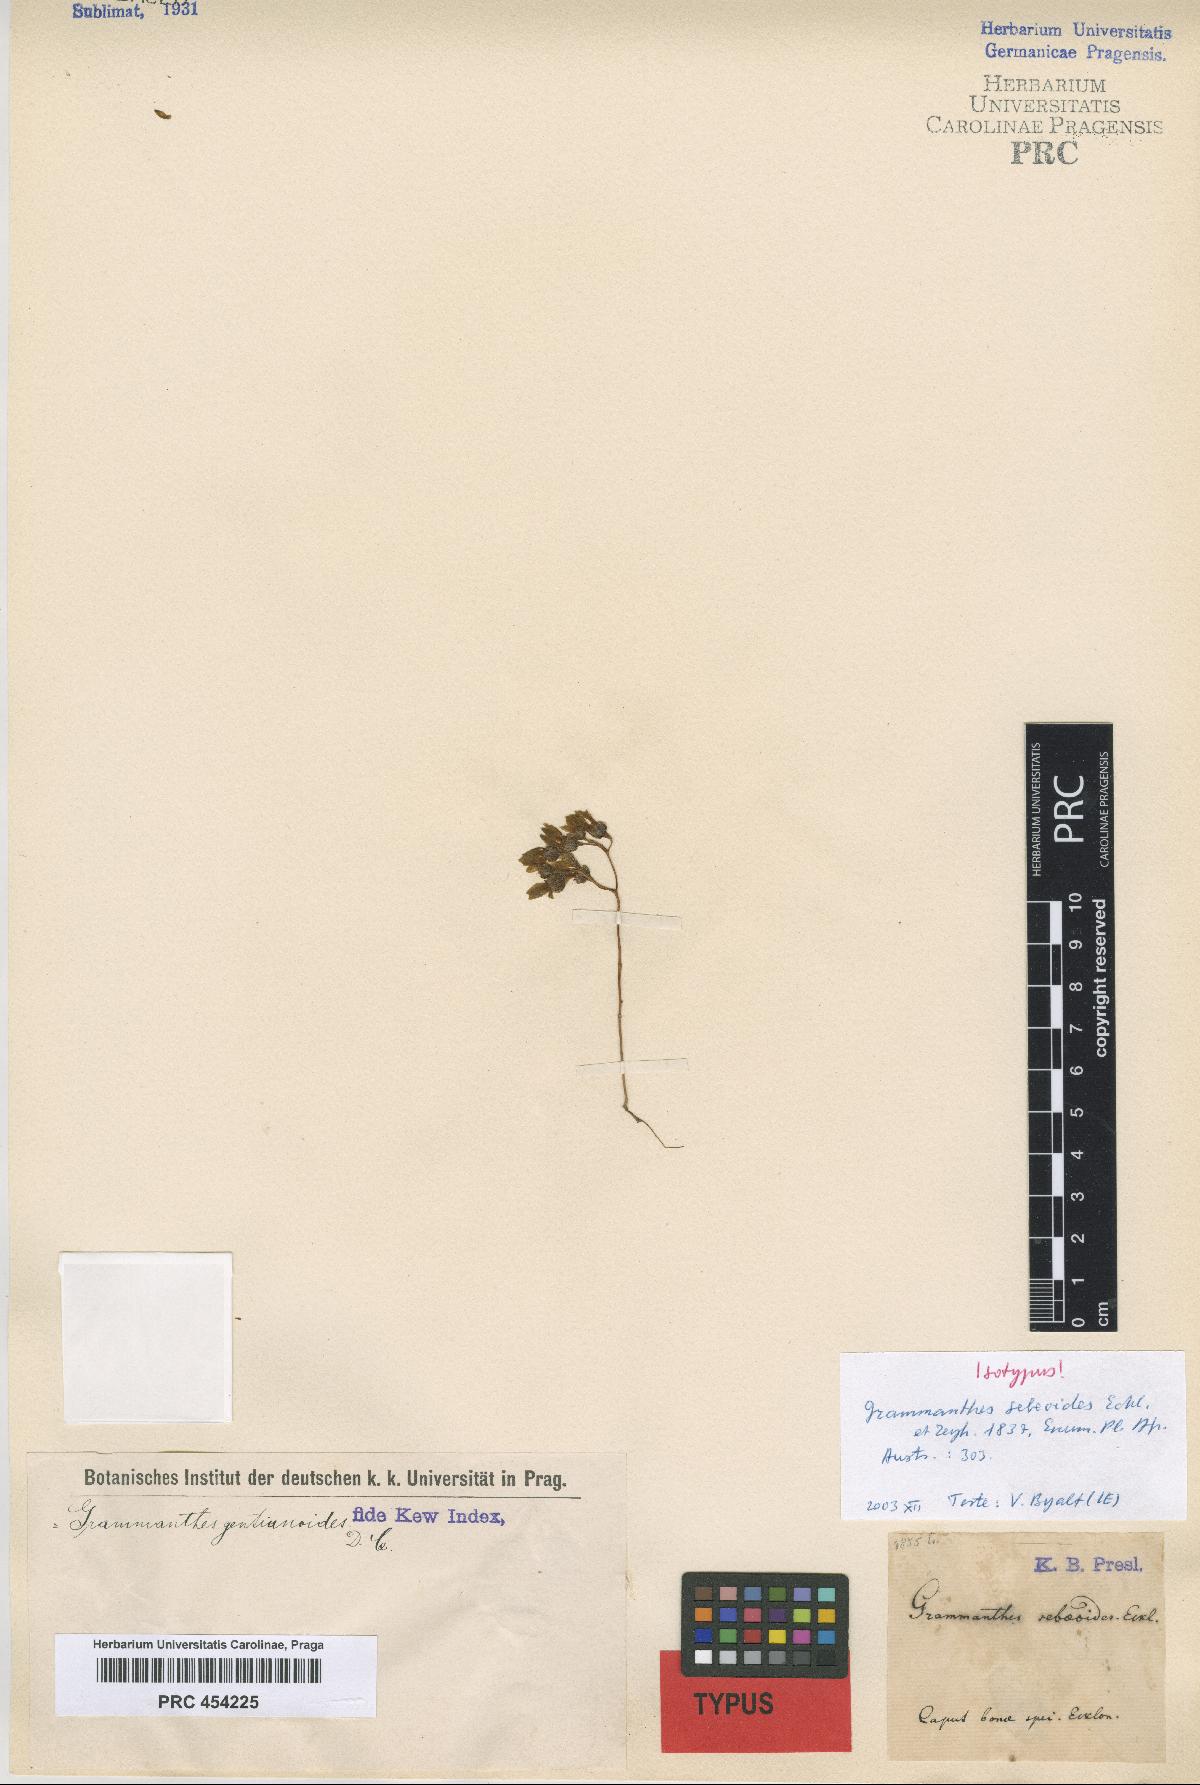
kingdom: Plantae
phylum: Tracheophyta
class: Magnoliopsida
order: Saxifragales
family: Crassulaceae
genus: Crassula
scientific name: Crassula sebaeoides
